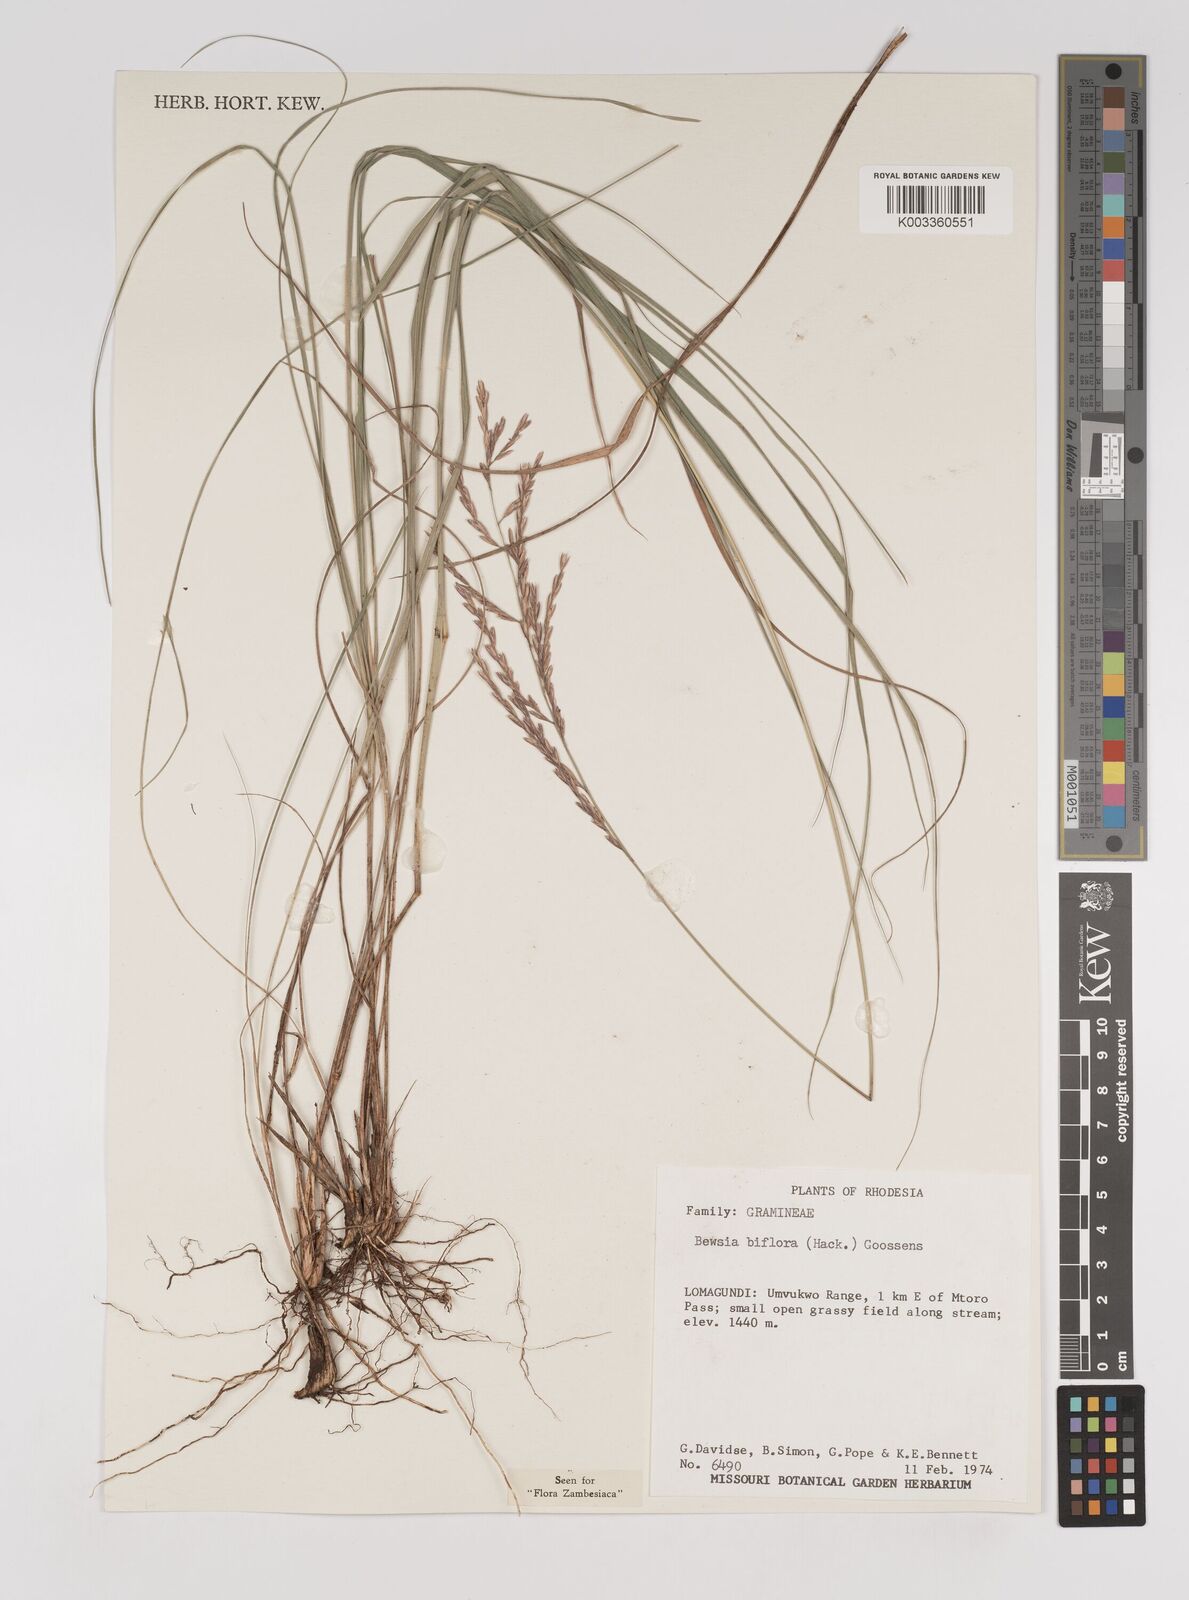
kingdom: Plantae
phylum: Tracheophyta
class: Liliopsida
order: Poales
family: Poaceae
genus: Bewsia
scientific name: Bewsia biflora
